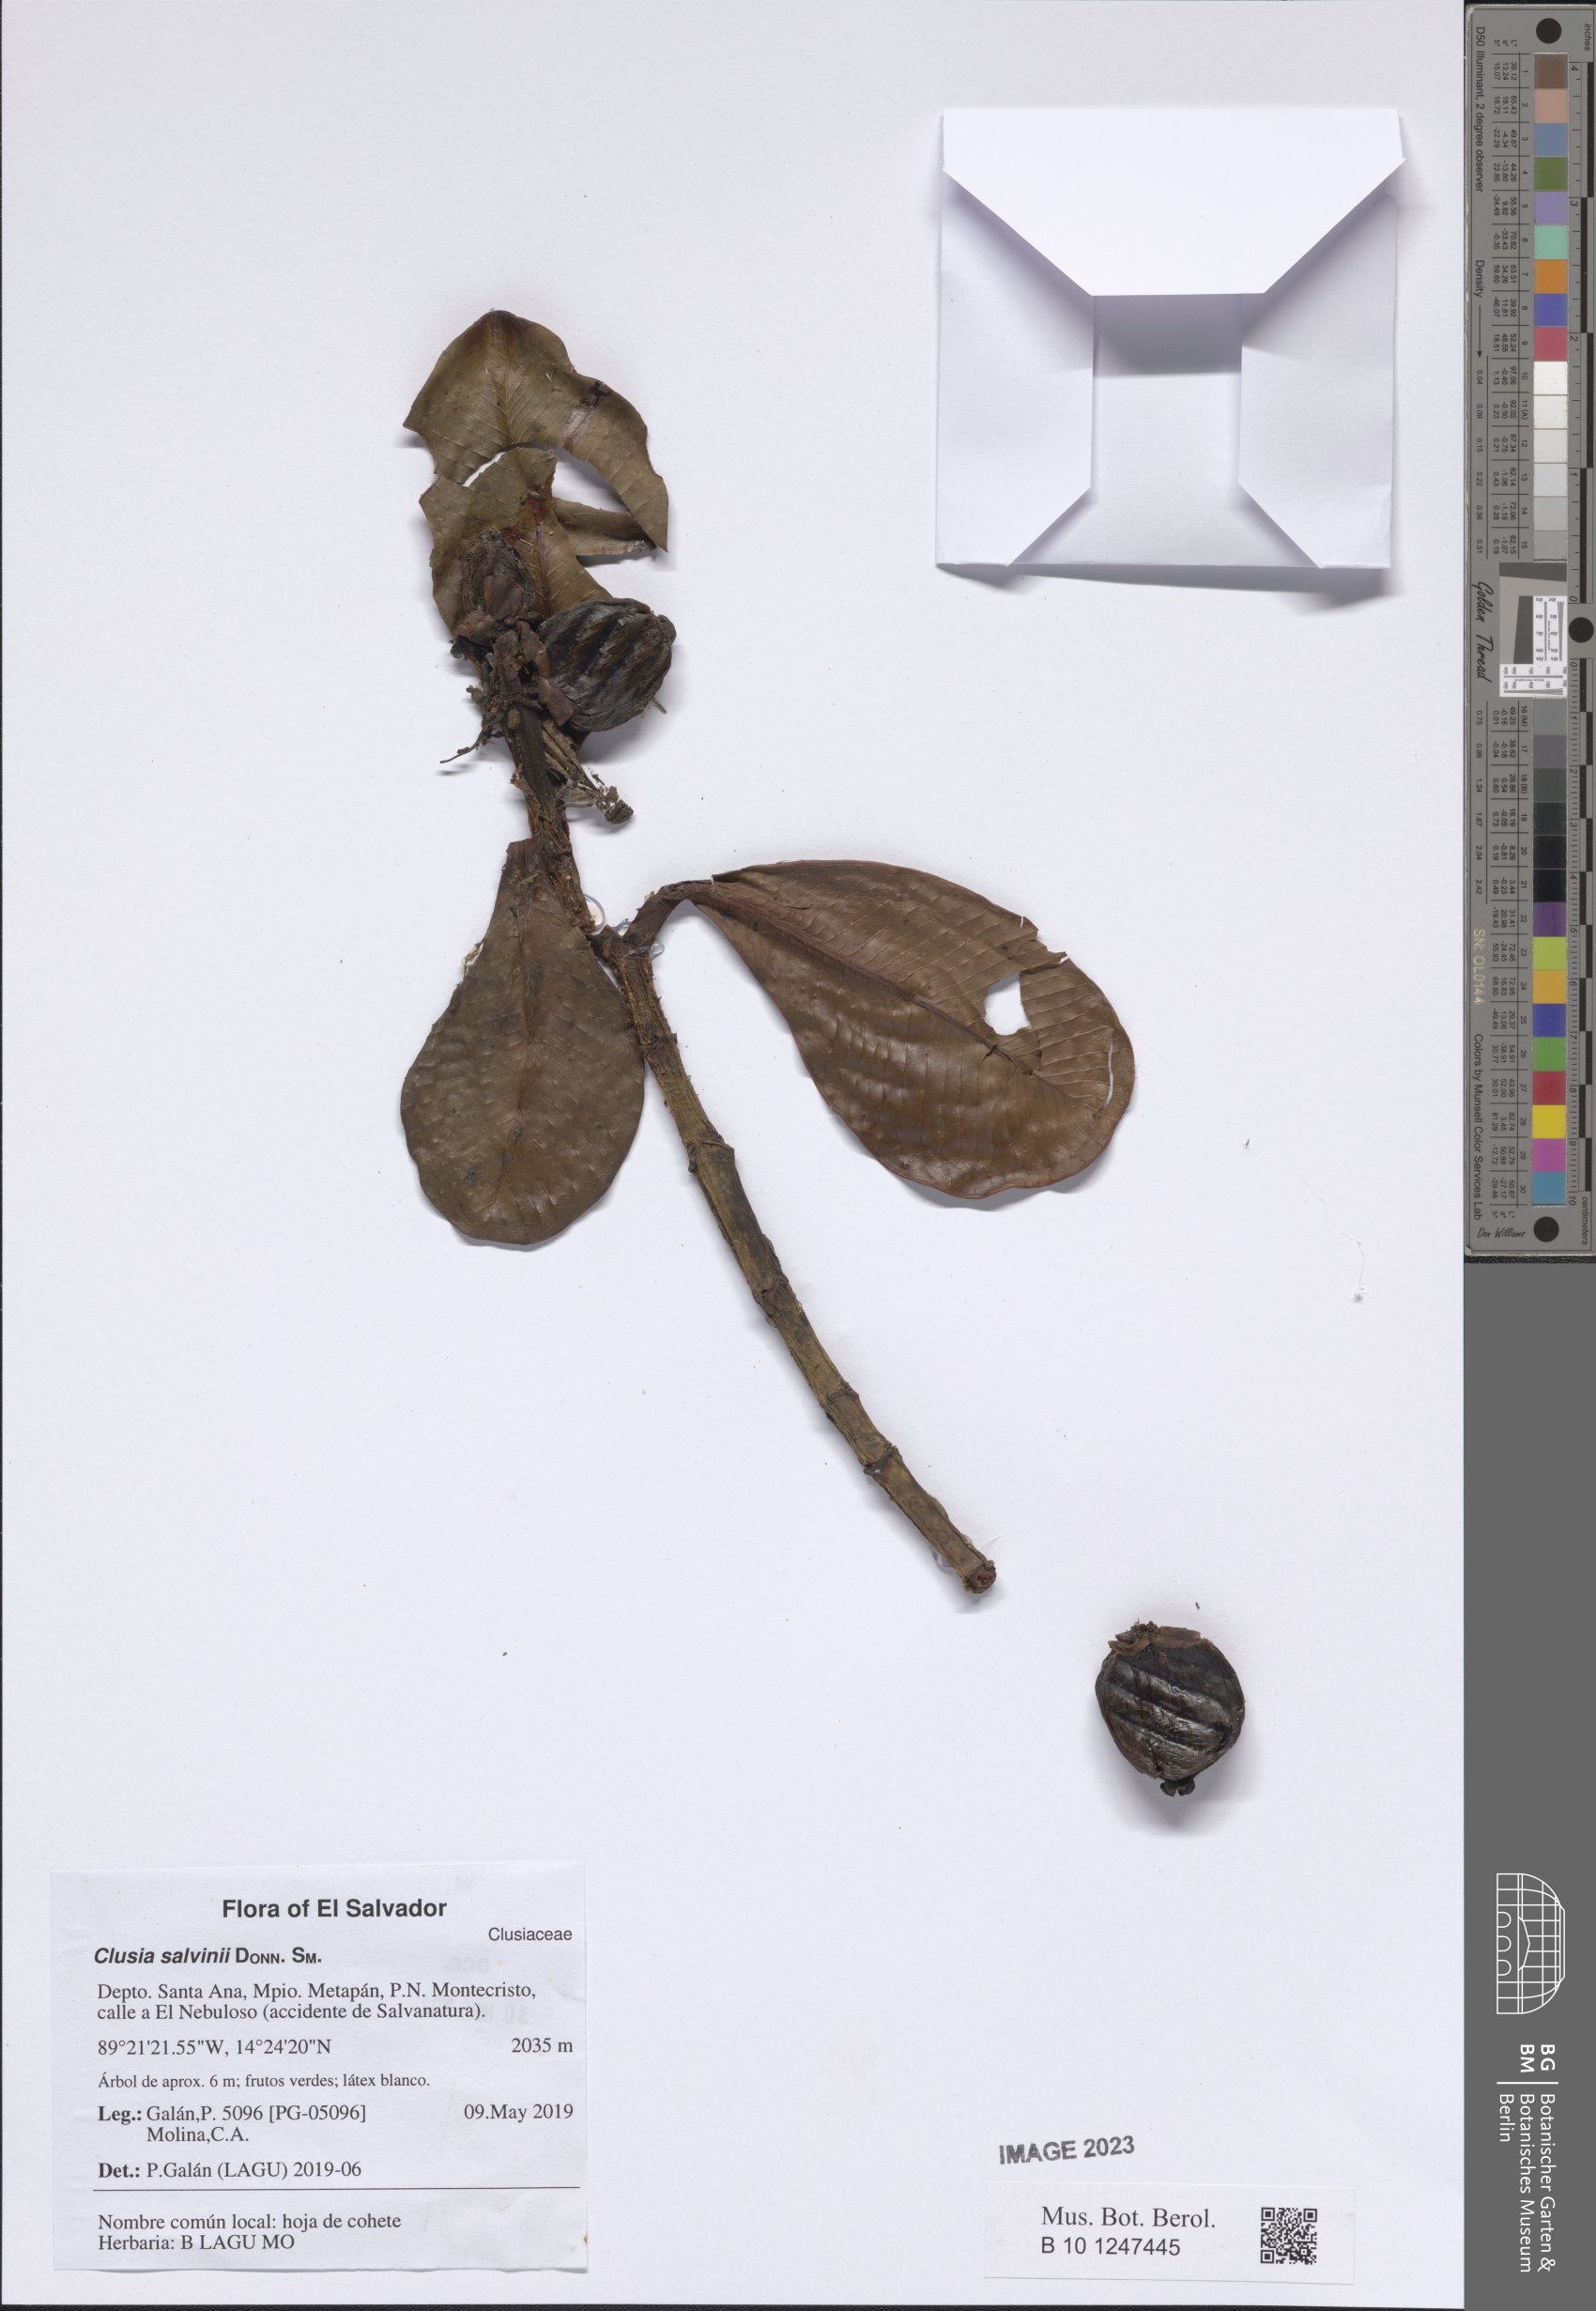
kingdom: Plantae
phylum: Tracheophyta
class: Magnoliopsida
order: Malpighiales
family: Clusiaceae
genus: Clusia
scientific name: Clusia salvinii
